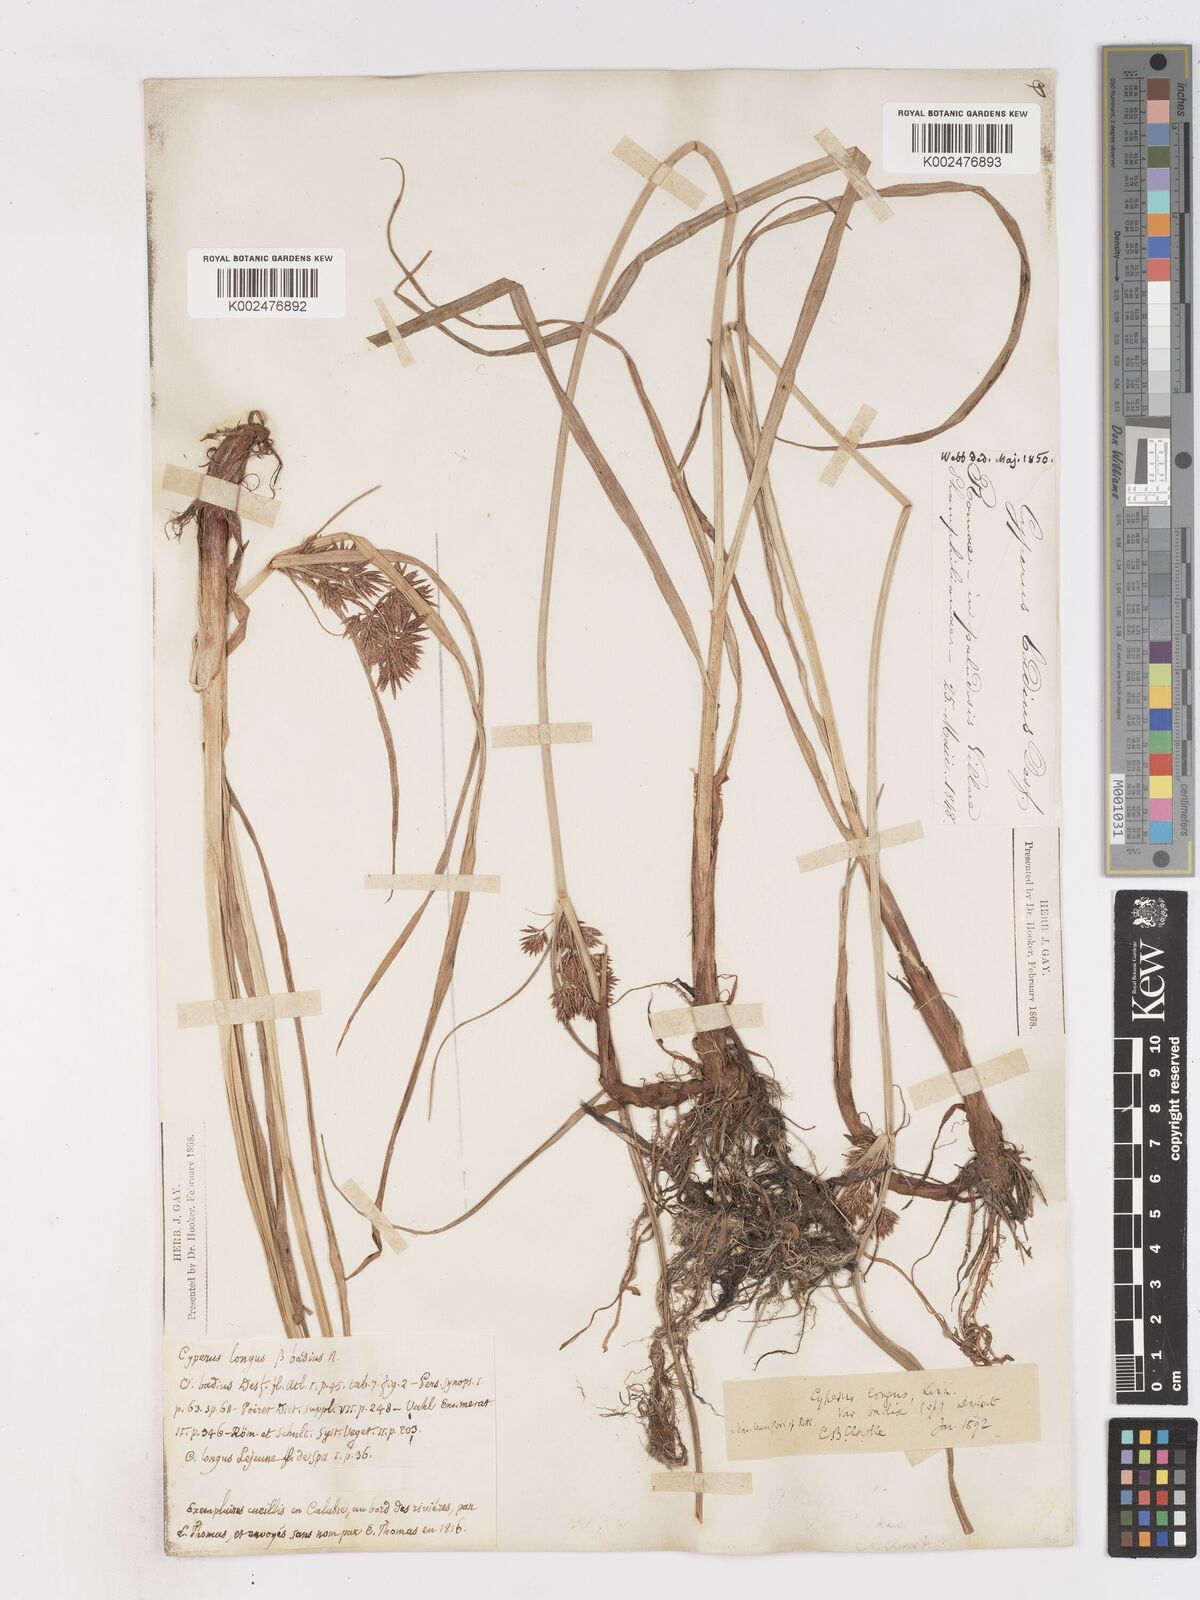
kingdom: Plantae
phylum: Tracheophyta
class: Liliopsida
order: Poales
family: Cyperaceae
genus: Cyperus
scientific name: Cyperus longus
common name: Galingale
